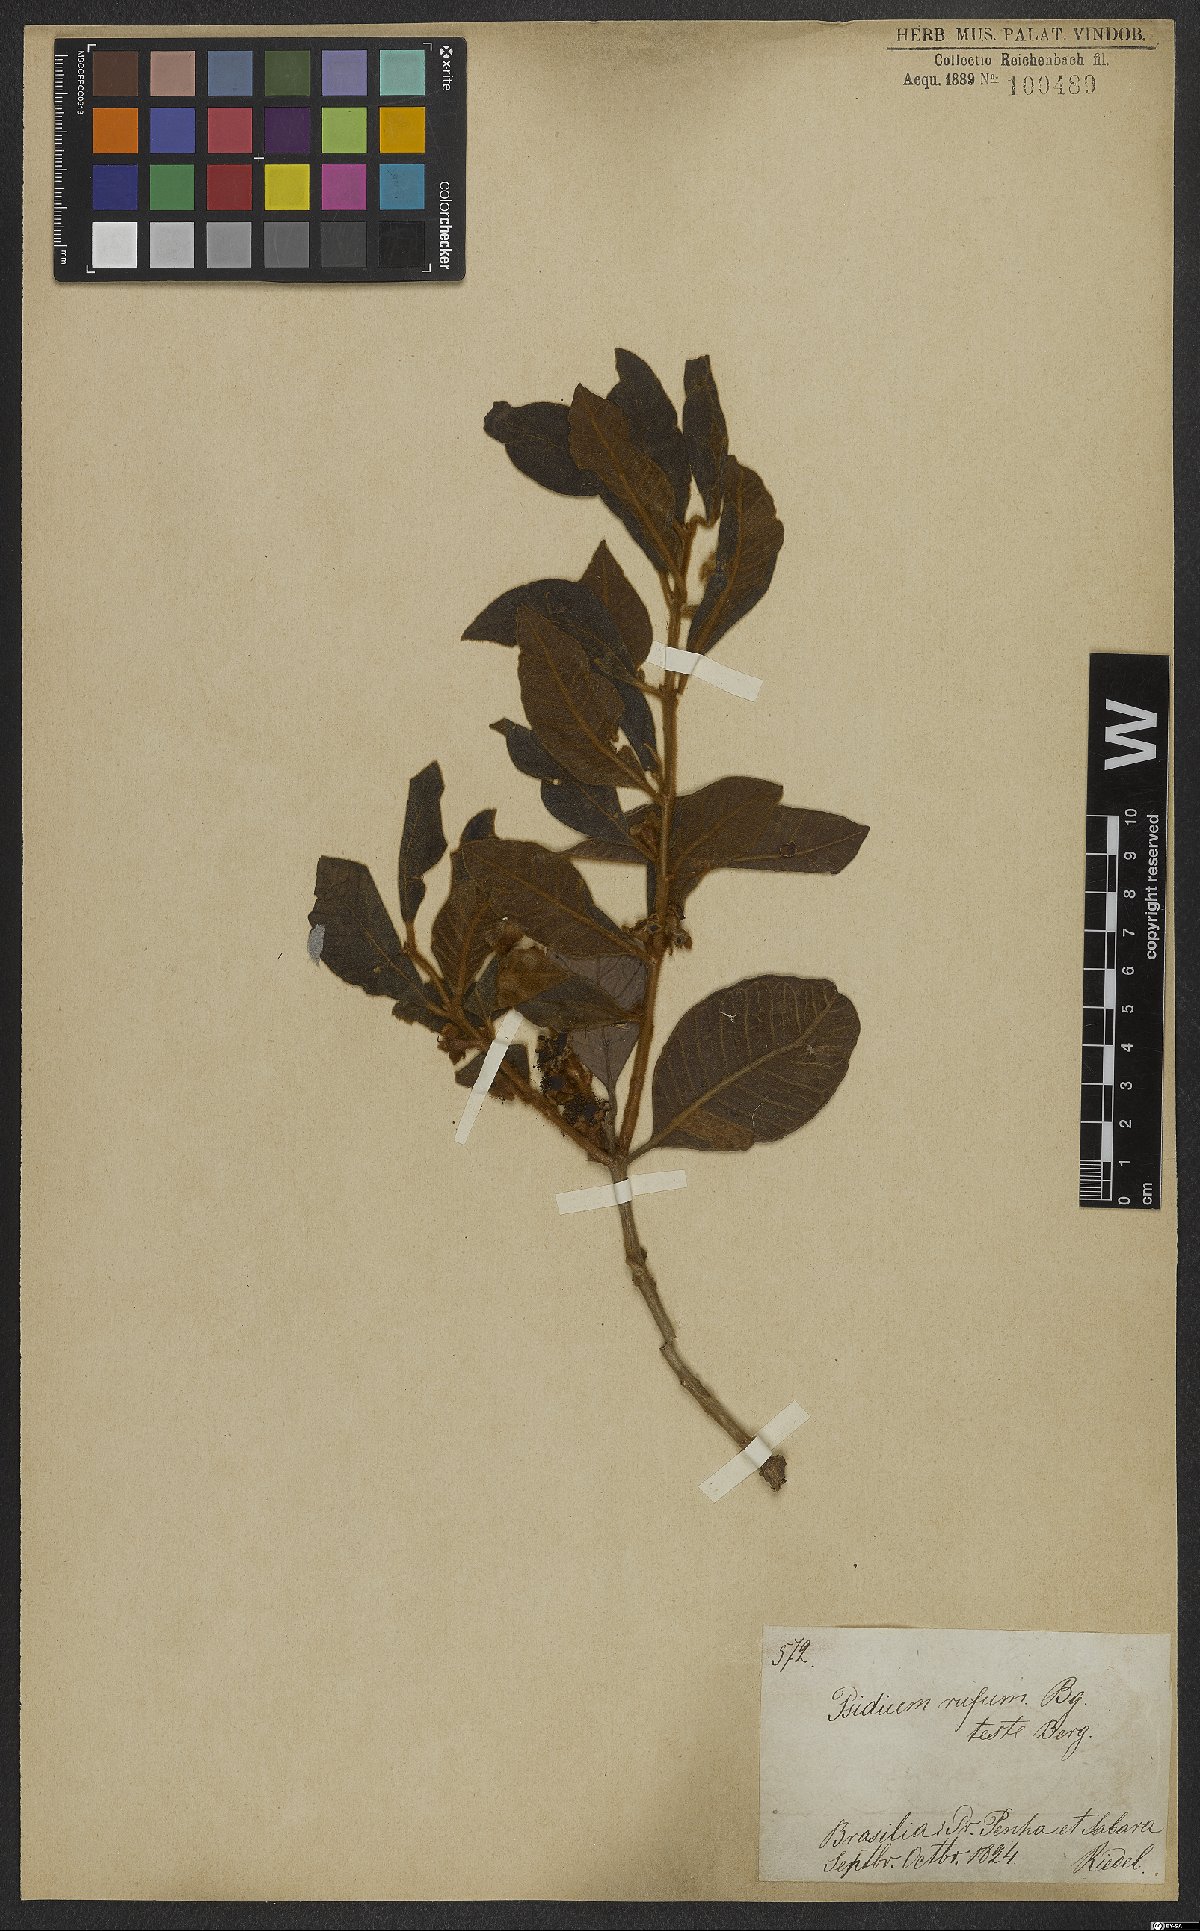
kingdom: Plantae
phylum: Tracheophyta
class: Magnoliopsida
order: Myrtales
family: Myrtaceae
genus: Psidium
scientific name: Psidium rufum
